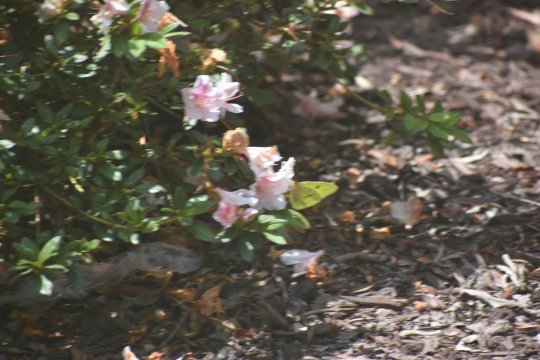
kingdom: Animalia
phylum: Arthropoda
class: Insecta
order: Lepidoptera
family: Pieridae
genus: Phoebis
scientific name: Phoebis sennae
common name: Cloudless Sulphur
